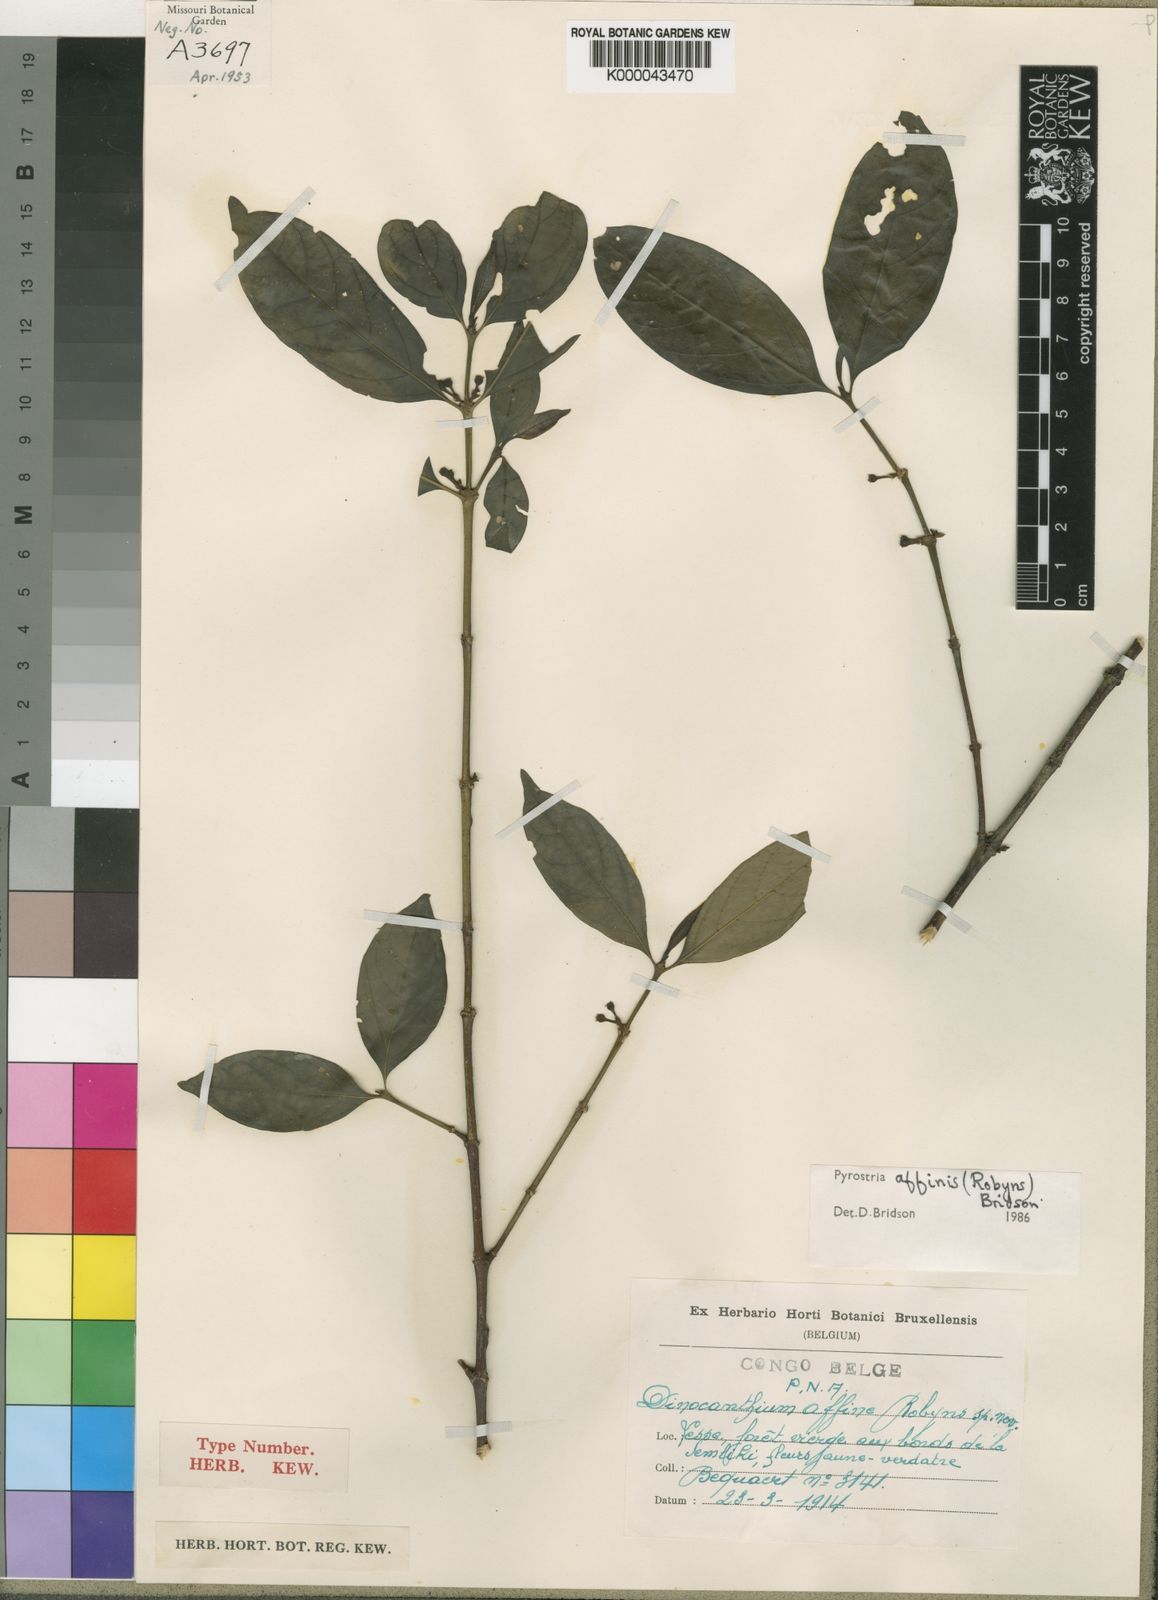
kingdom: Plantae
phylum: Tracheophyta
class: Magnoliopsida
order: Gentianales
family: Rubiaceae
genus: Pyrostria
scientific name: Pyrostria affinis
